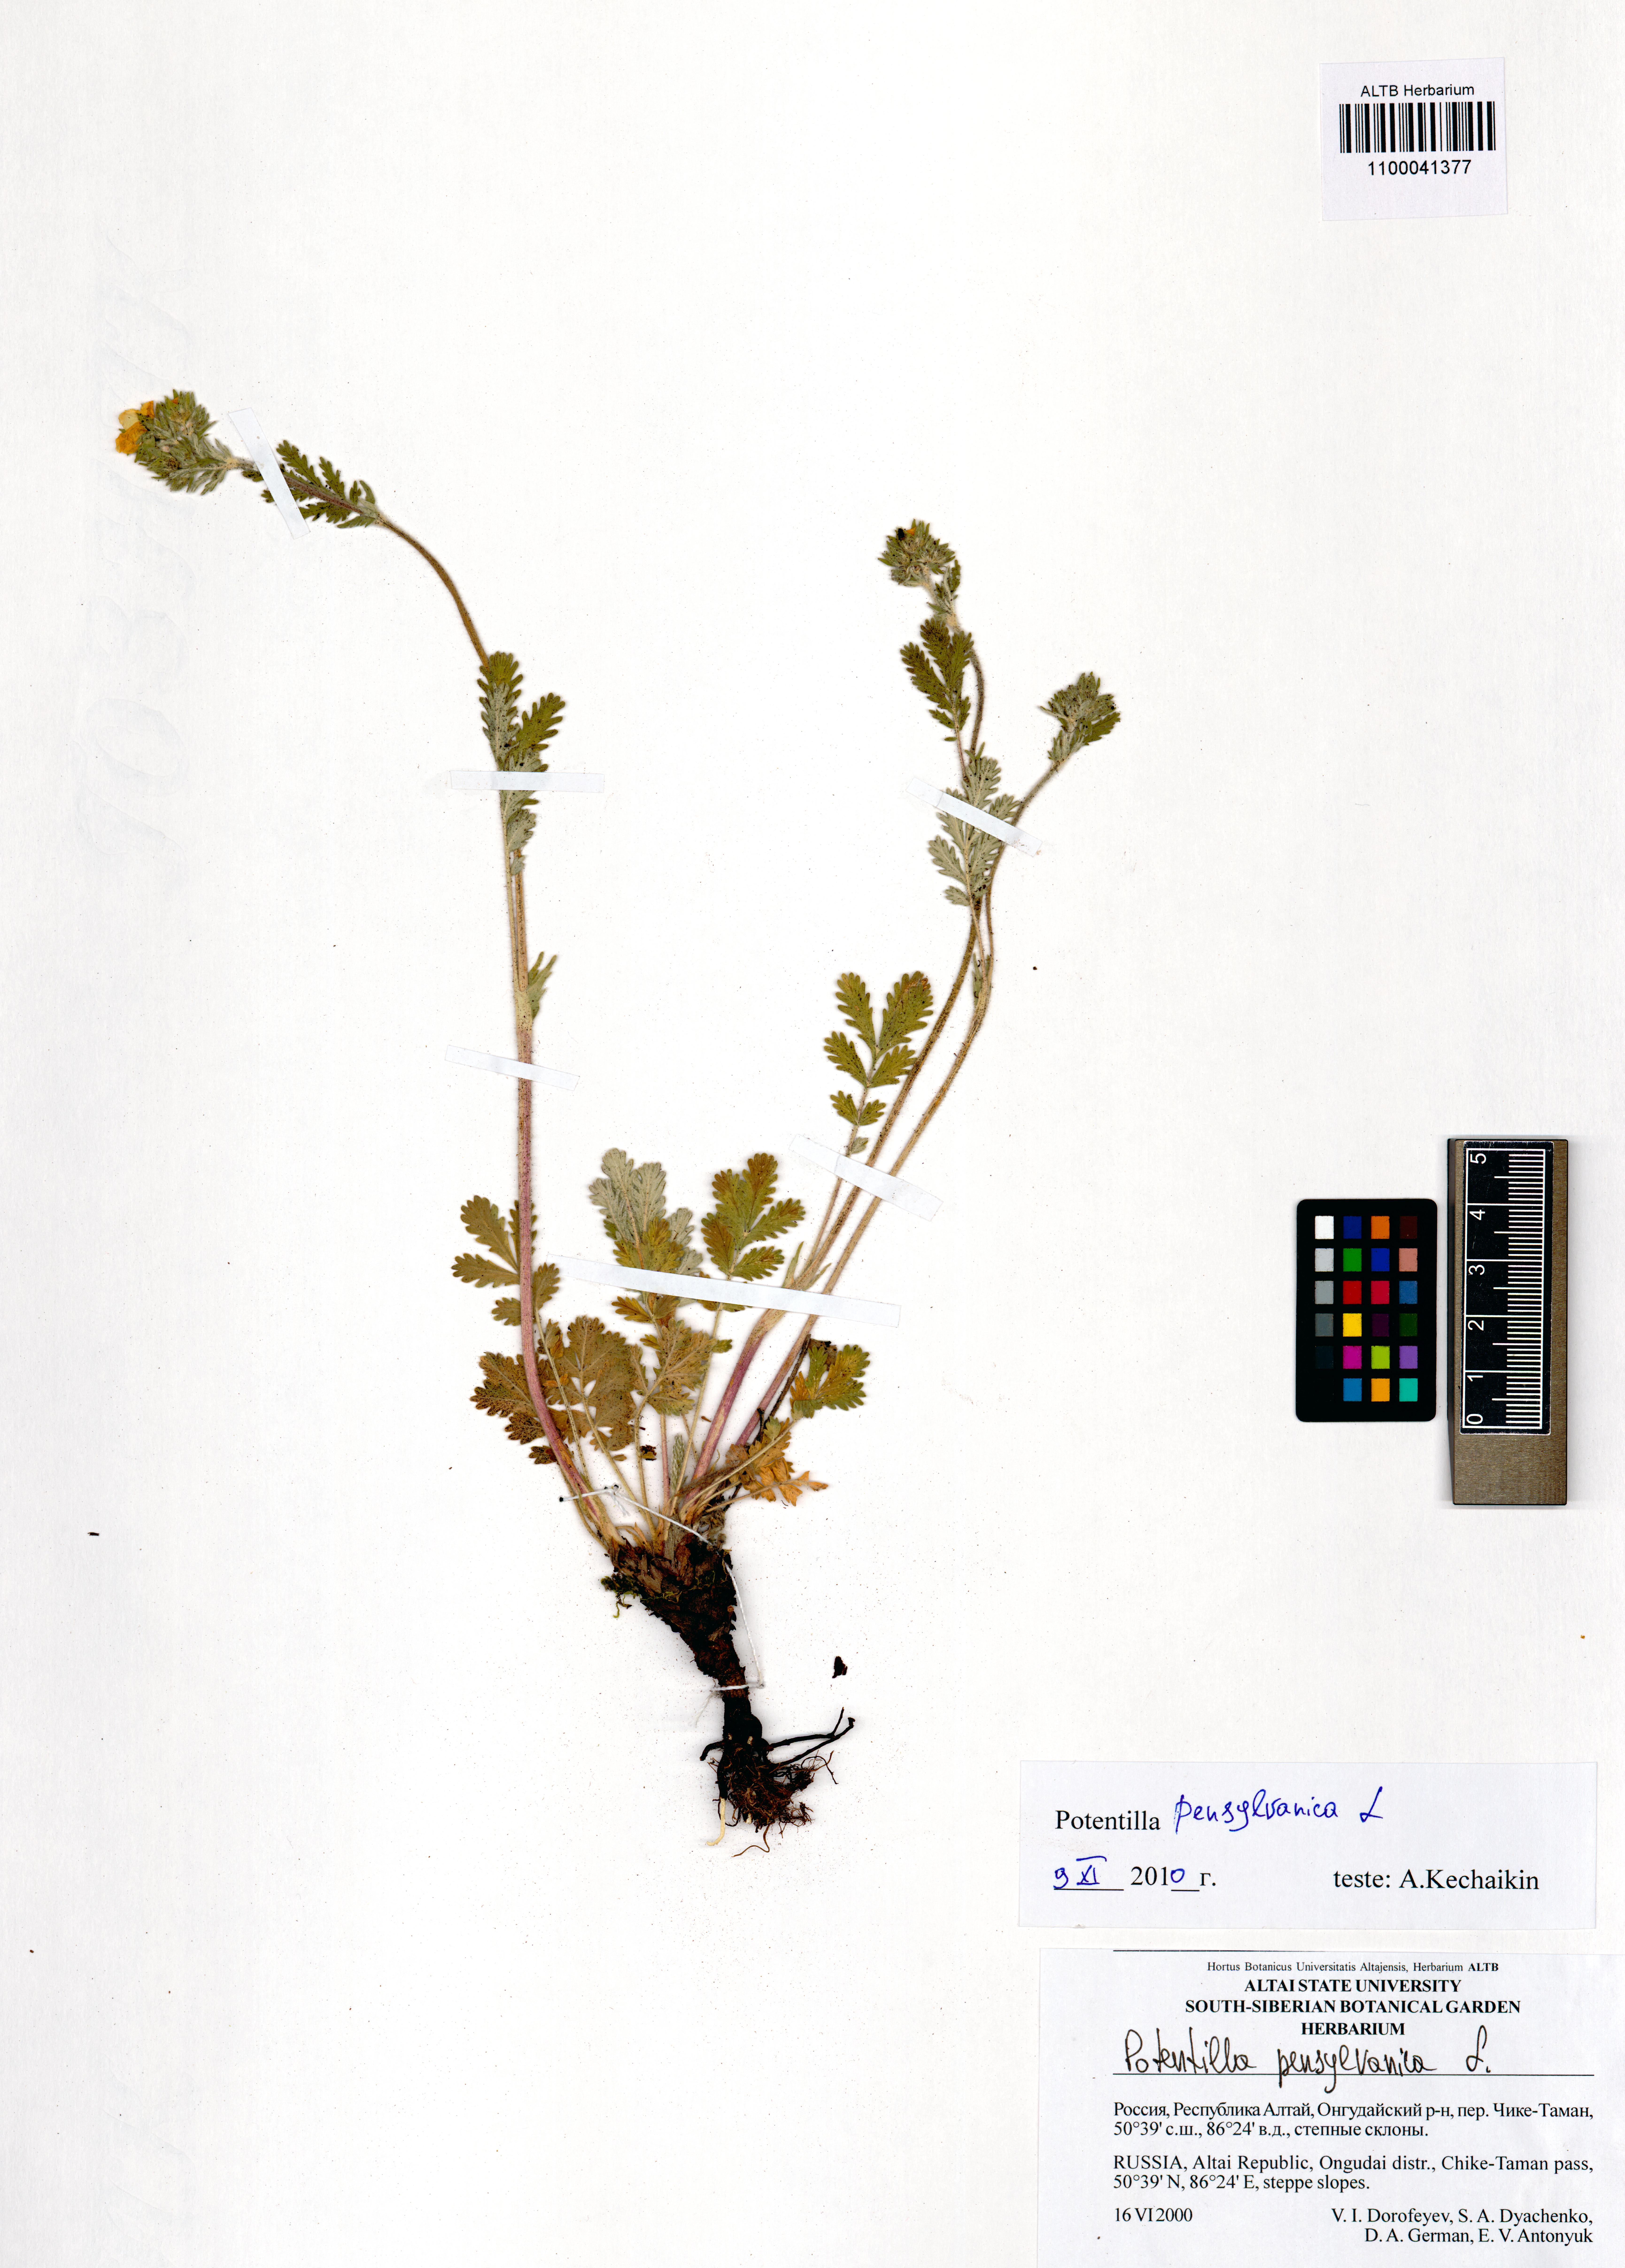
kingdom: Plantae
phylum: Tracheophyta
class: Magnoliopsida
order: Rosales
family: Rosaceae
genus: Potentilla
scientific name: Potentilla pensylvanica
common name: Pennsylvania cinquefoil
